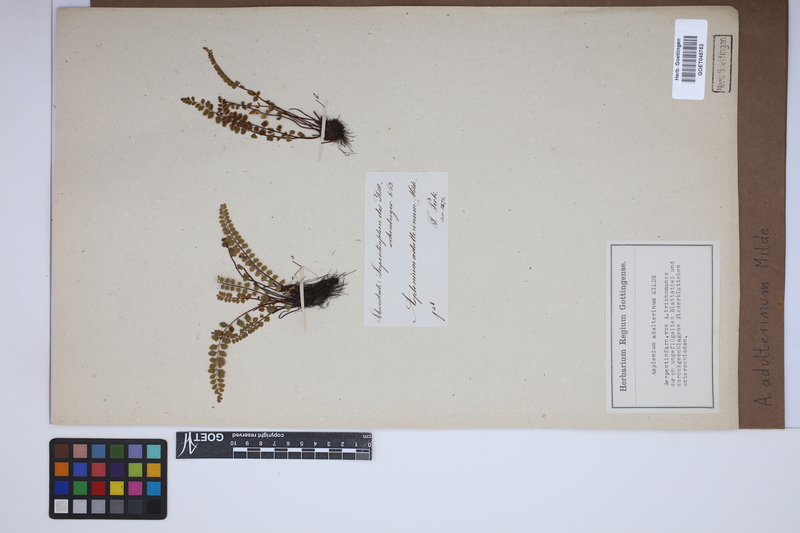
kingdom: Plantae
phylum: Tracheophyta
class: Polypodiopsida
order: Polypodiales
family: Aspleniaceae
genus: Asplenium
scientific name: Asplenium adulterinum
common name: Adulterated spleenwort
